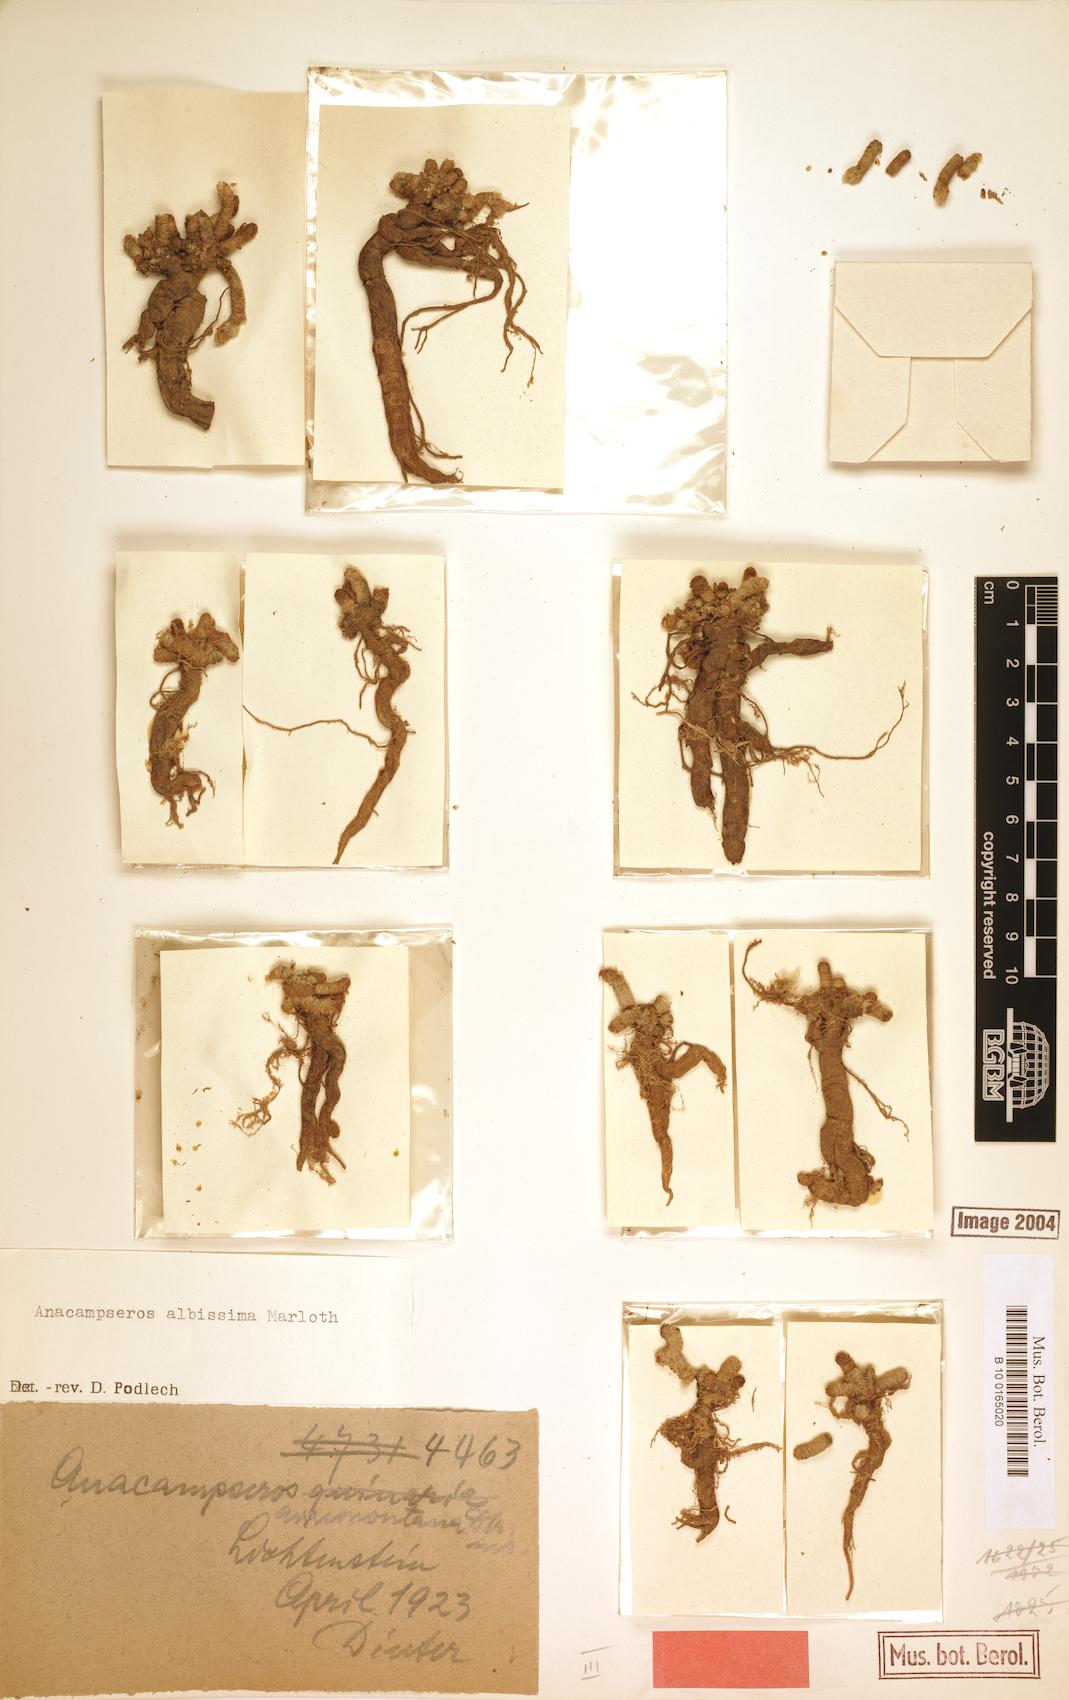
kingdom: Plantae
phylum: Tracheophyta
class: Magnoliopsida
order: Caryophyllales
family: Anacampserotaceae
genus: Avonia
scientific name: Avonia albissima
